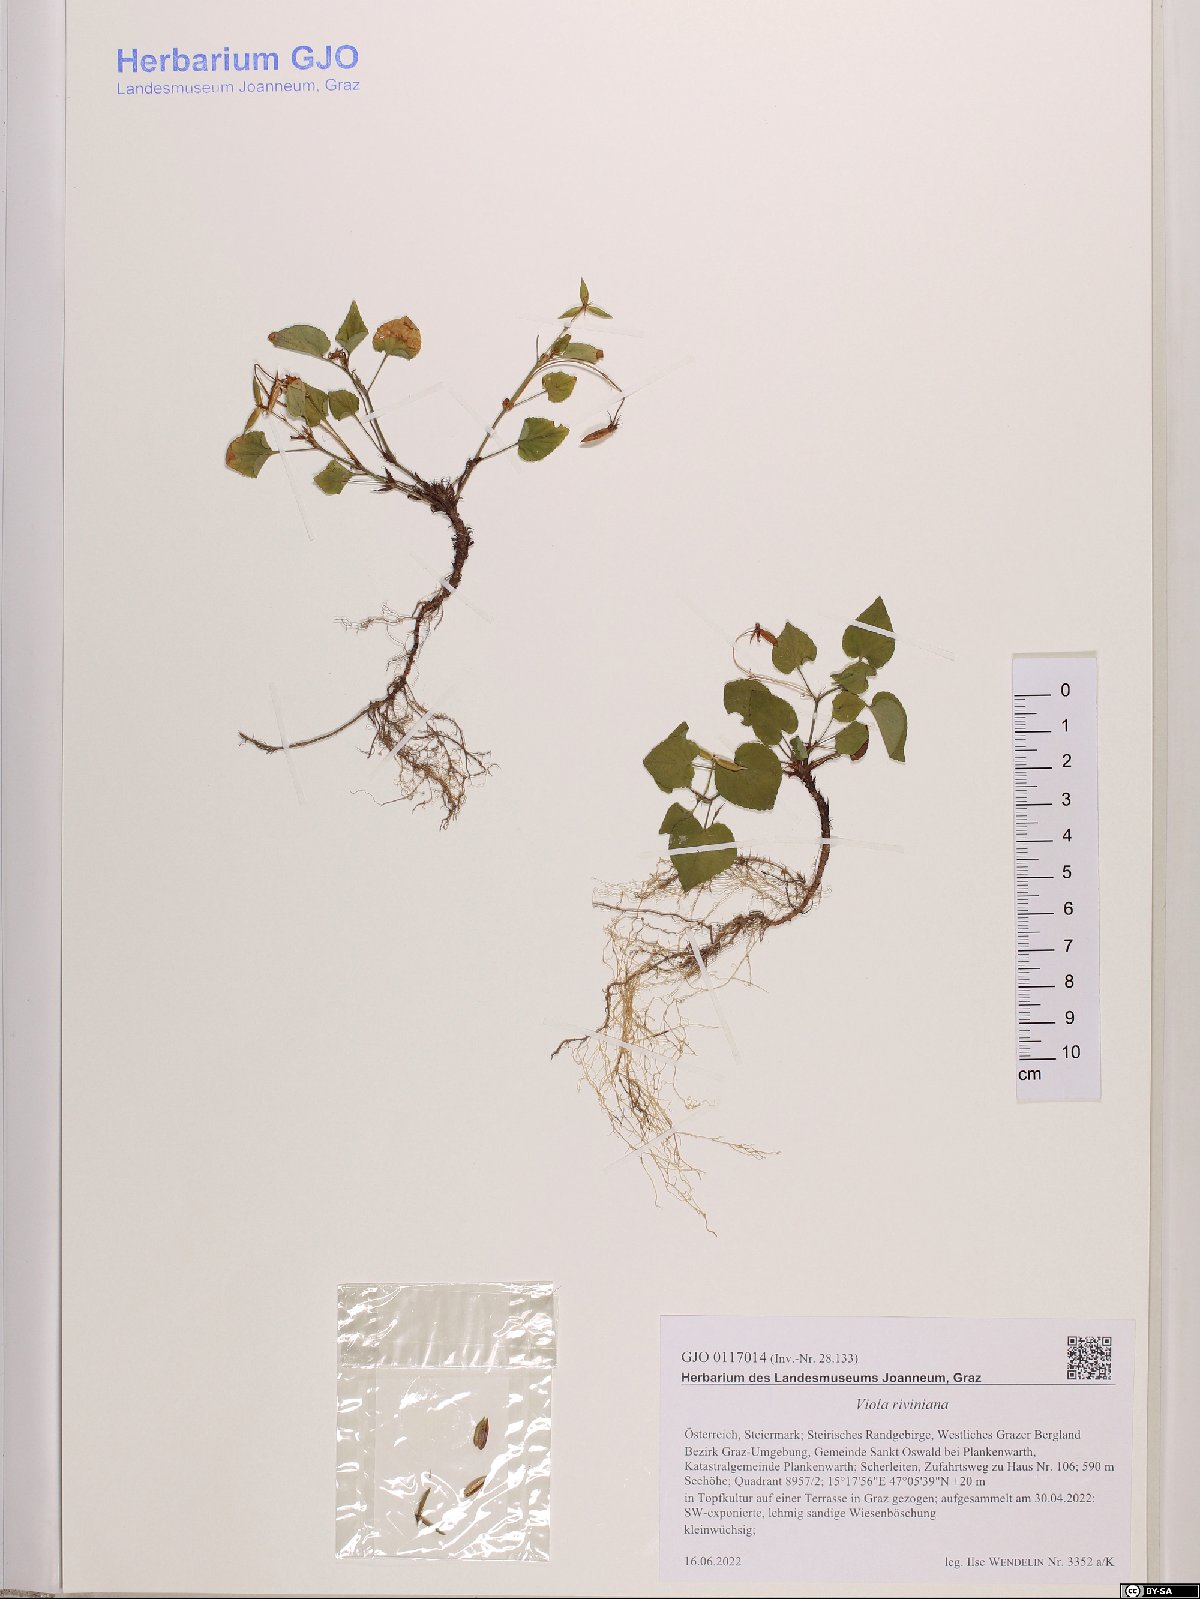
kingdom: Plantae
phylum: Tracheophyta
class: Magnoliopsida
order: Malpighiales
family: Violaceae
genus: Viola
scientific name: Viola riviniana
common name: Common dog-violet
